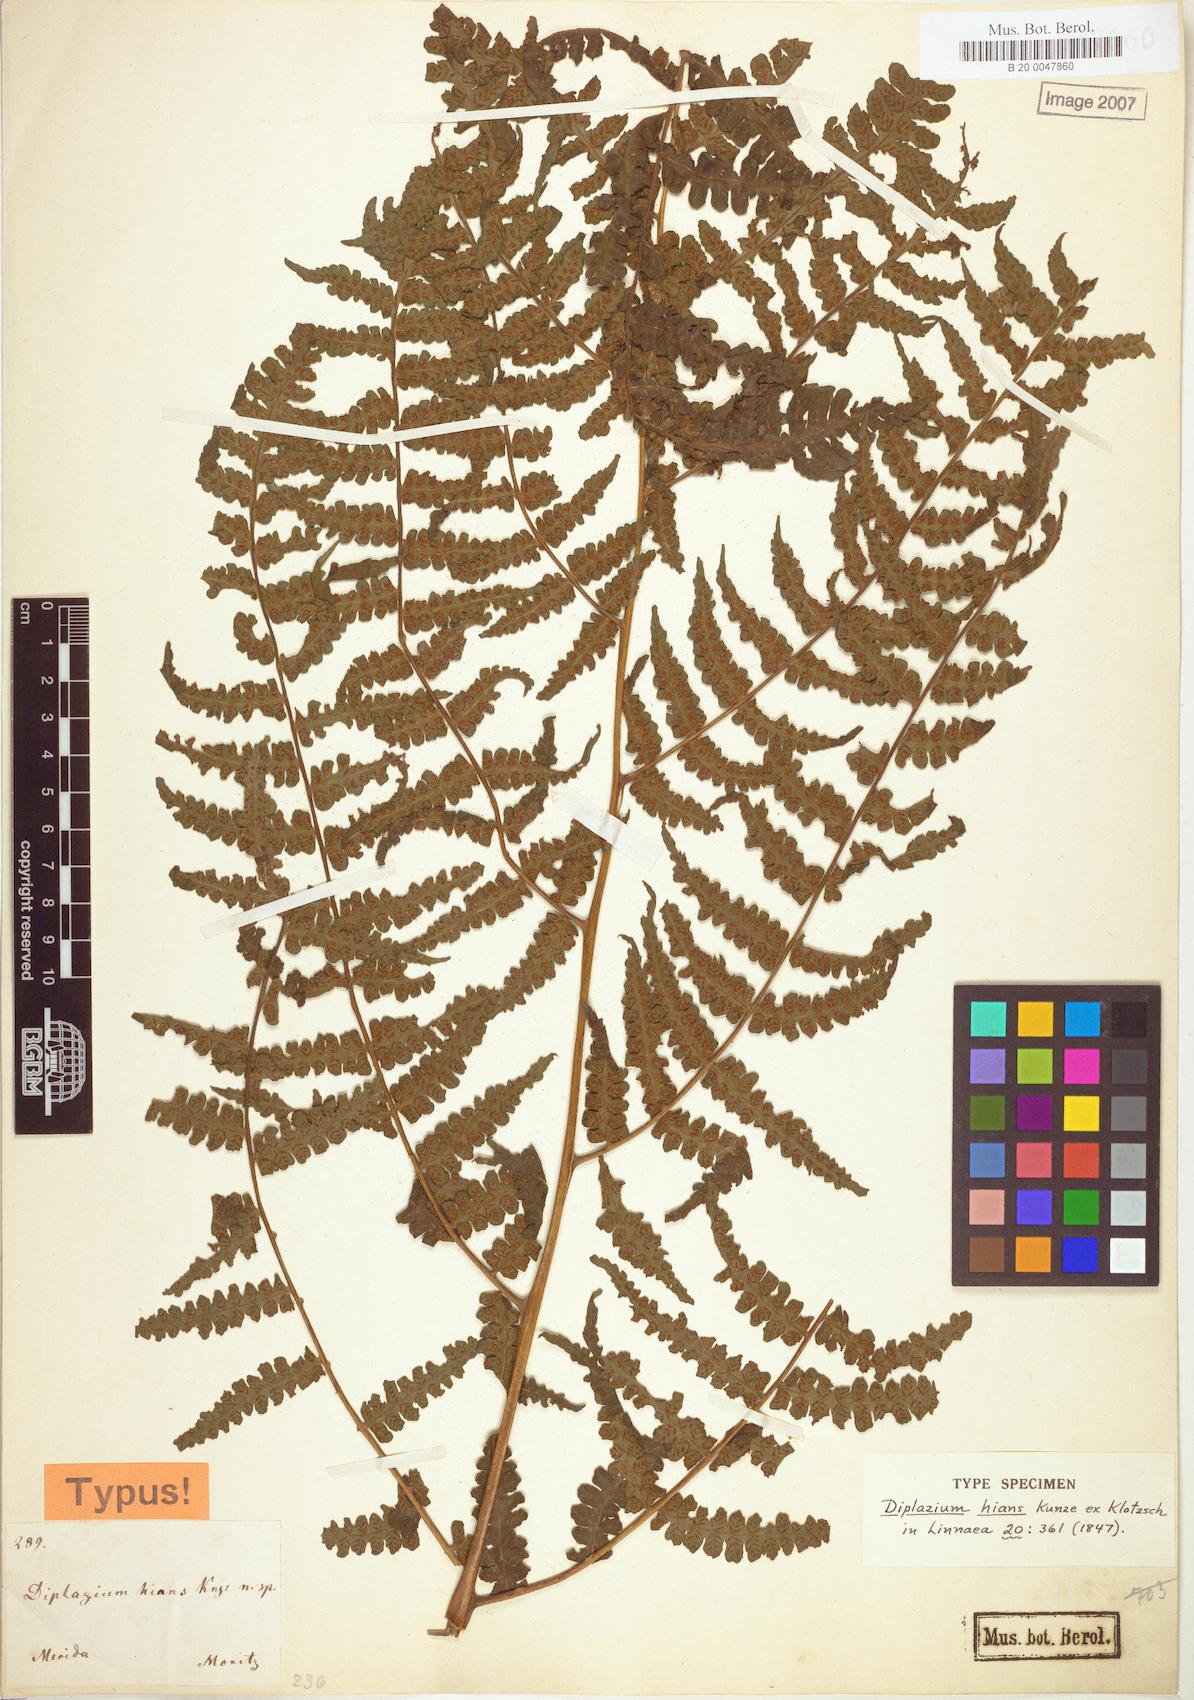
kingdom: Plantae
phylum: Tracheophyta
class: Polypodiopsida
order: Polypodiales
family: Athyriaceae
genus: Diplazium
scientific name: Diplazium hians
